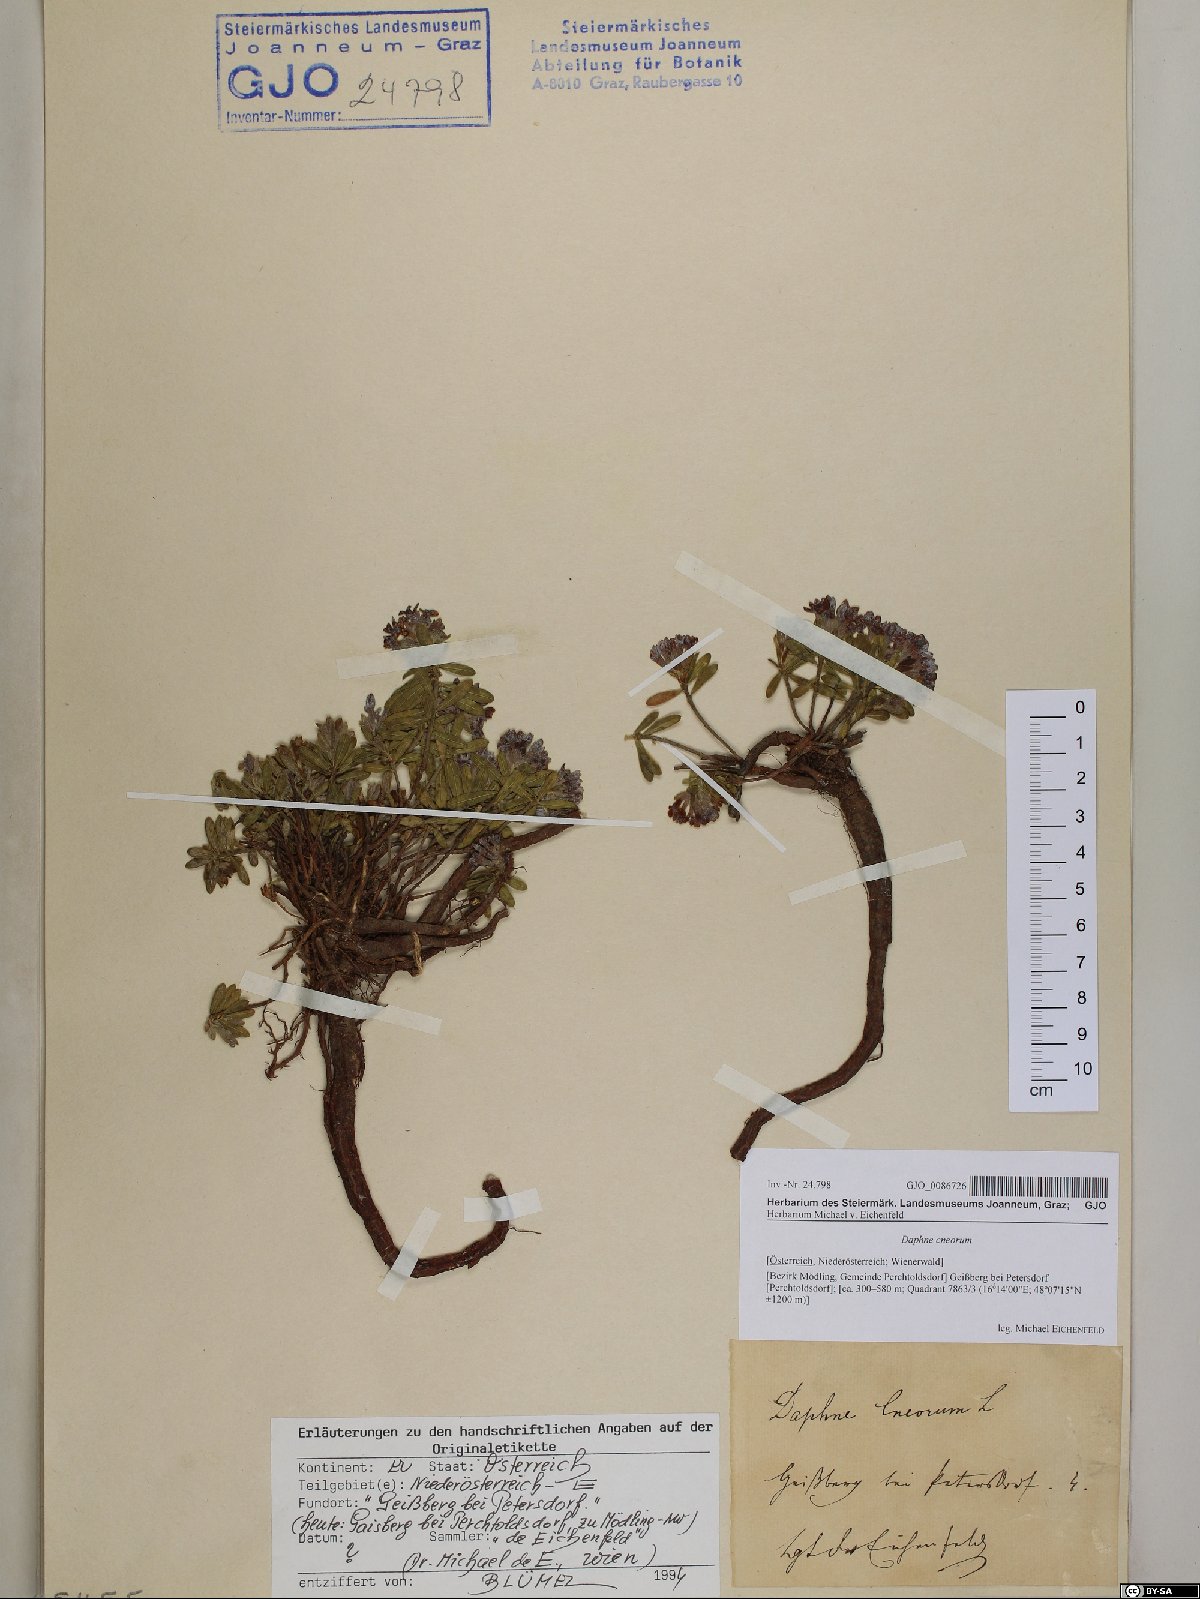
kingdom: Plantae
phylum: Tracheophyta
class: Magnoliopsida
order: Malvales
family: Thymelaeaceae
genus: Daphne
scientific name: Daphne cneorum
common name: Garland-flower
